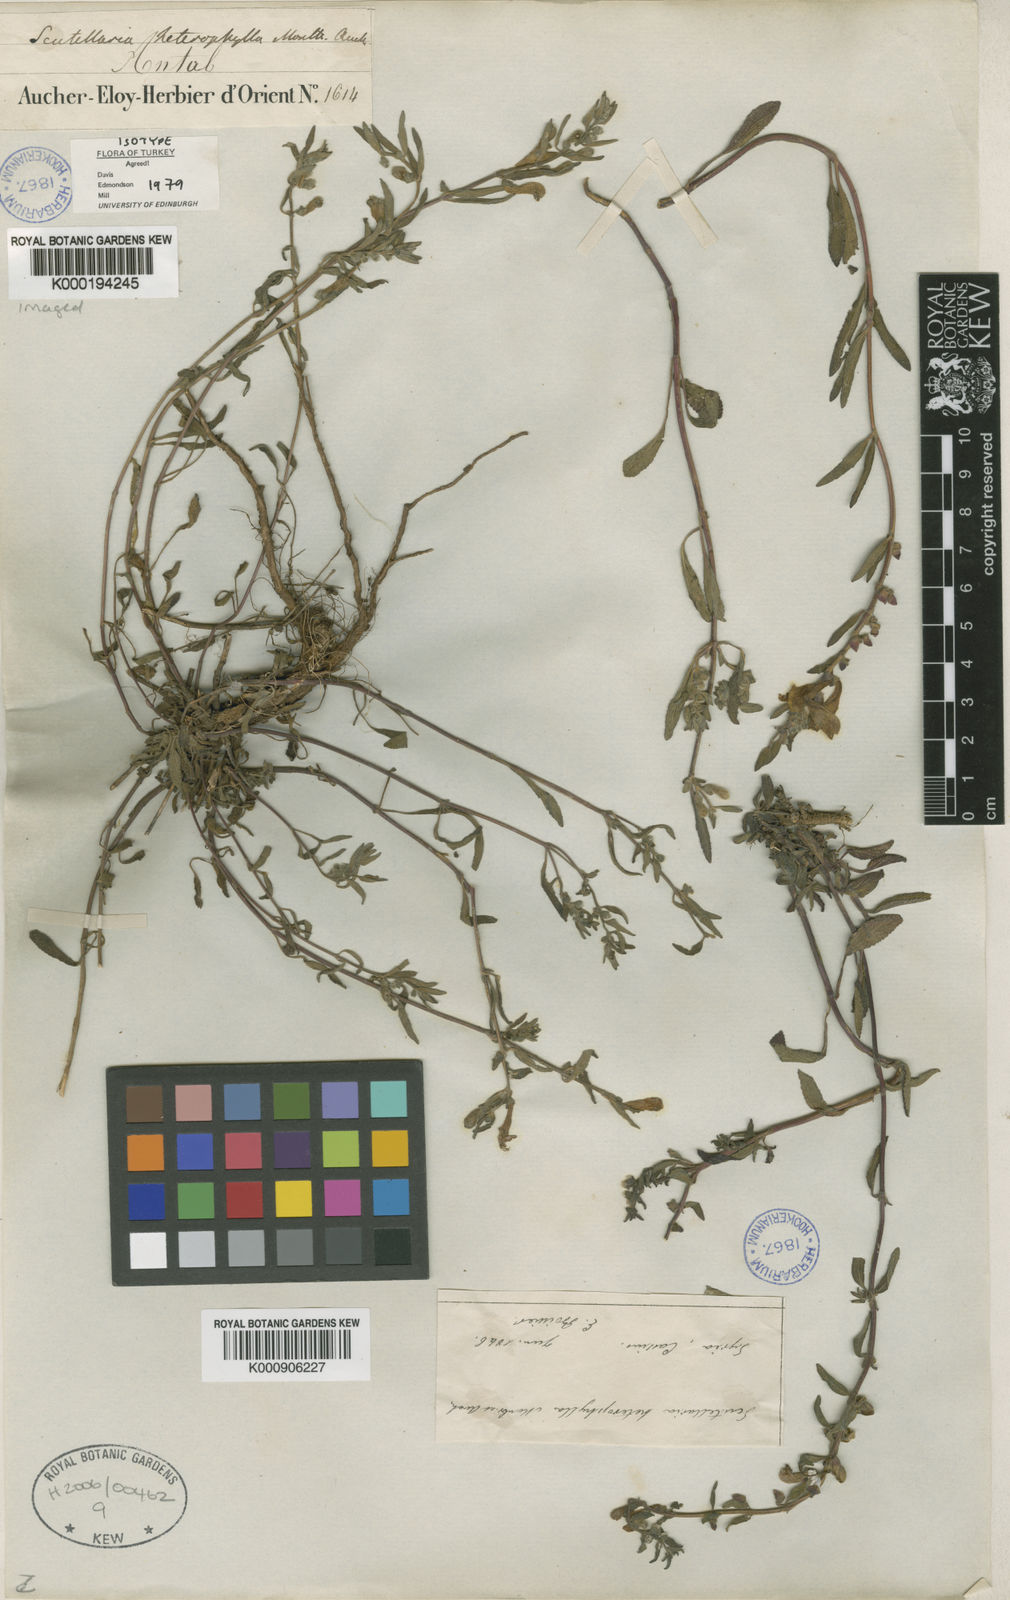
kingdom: Plantae
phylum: Tracheophyta
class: Magnoliopsida
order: Lamiales
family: Lamiaceae
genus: Scutellaria
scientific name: Scutellaria heterophylla
